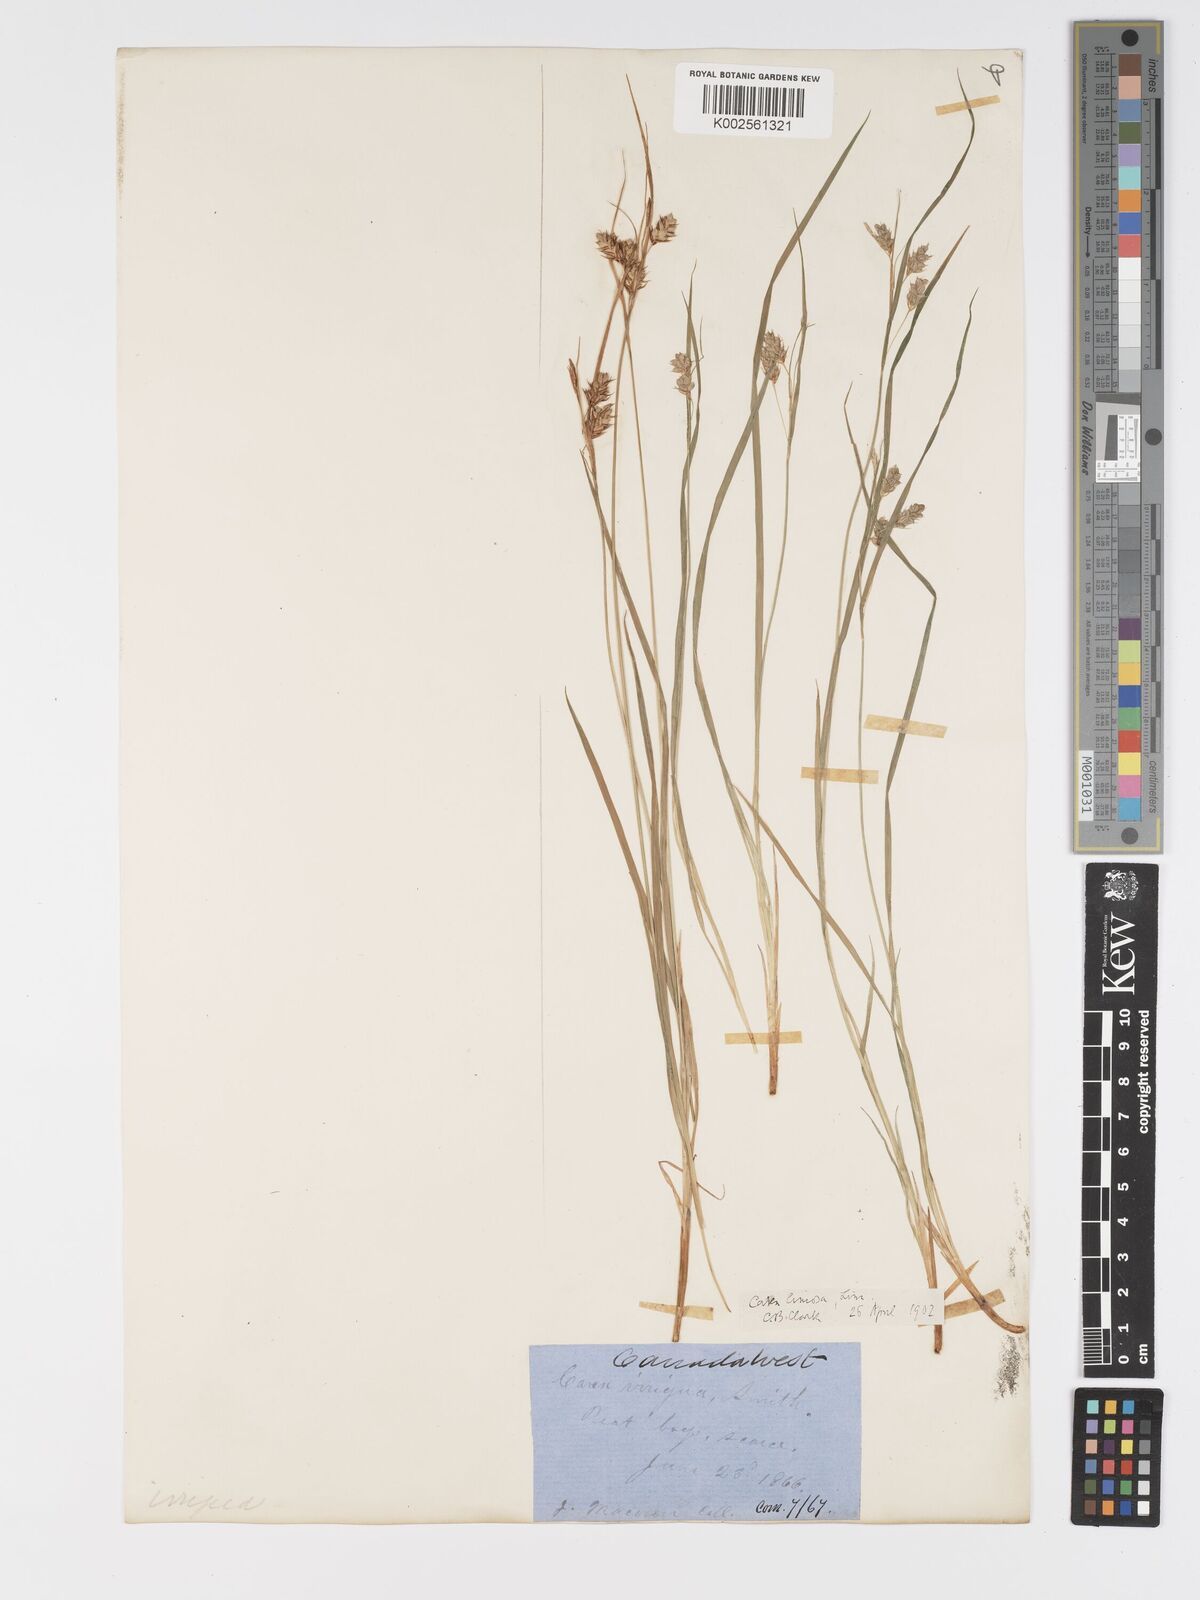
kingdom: Plantae
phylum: Tracheophyta
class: Liliopsida
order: Poales
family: Cyperaceae
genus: Carex
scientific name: Carex magellanica
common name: Bog sedge
